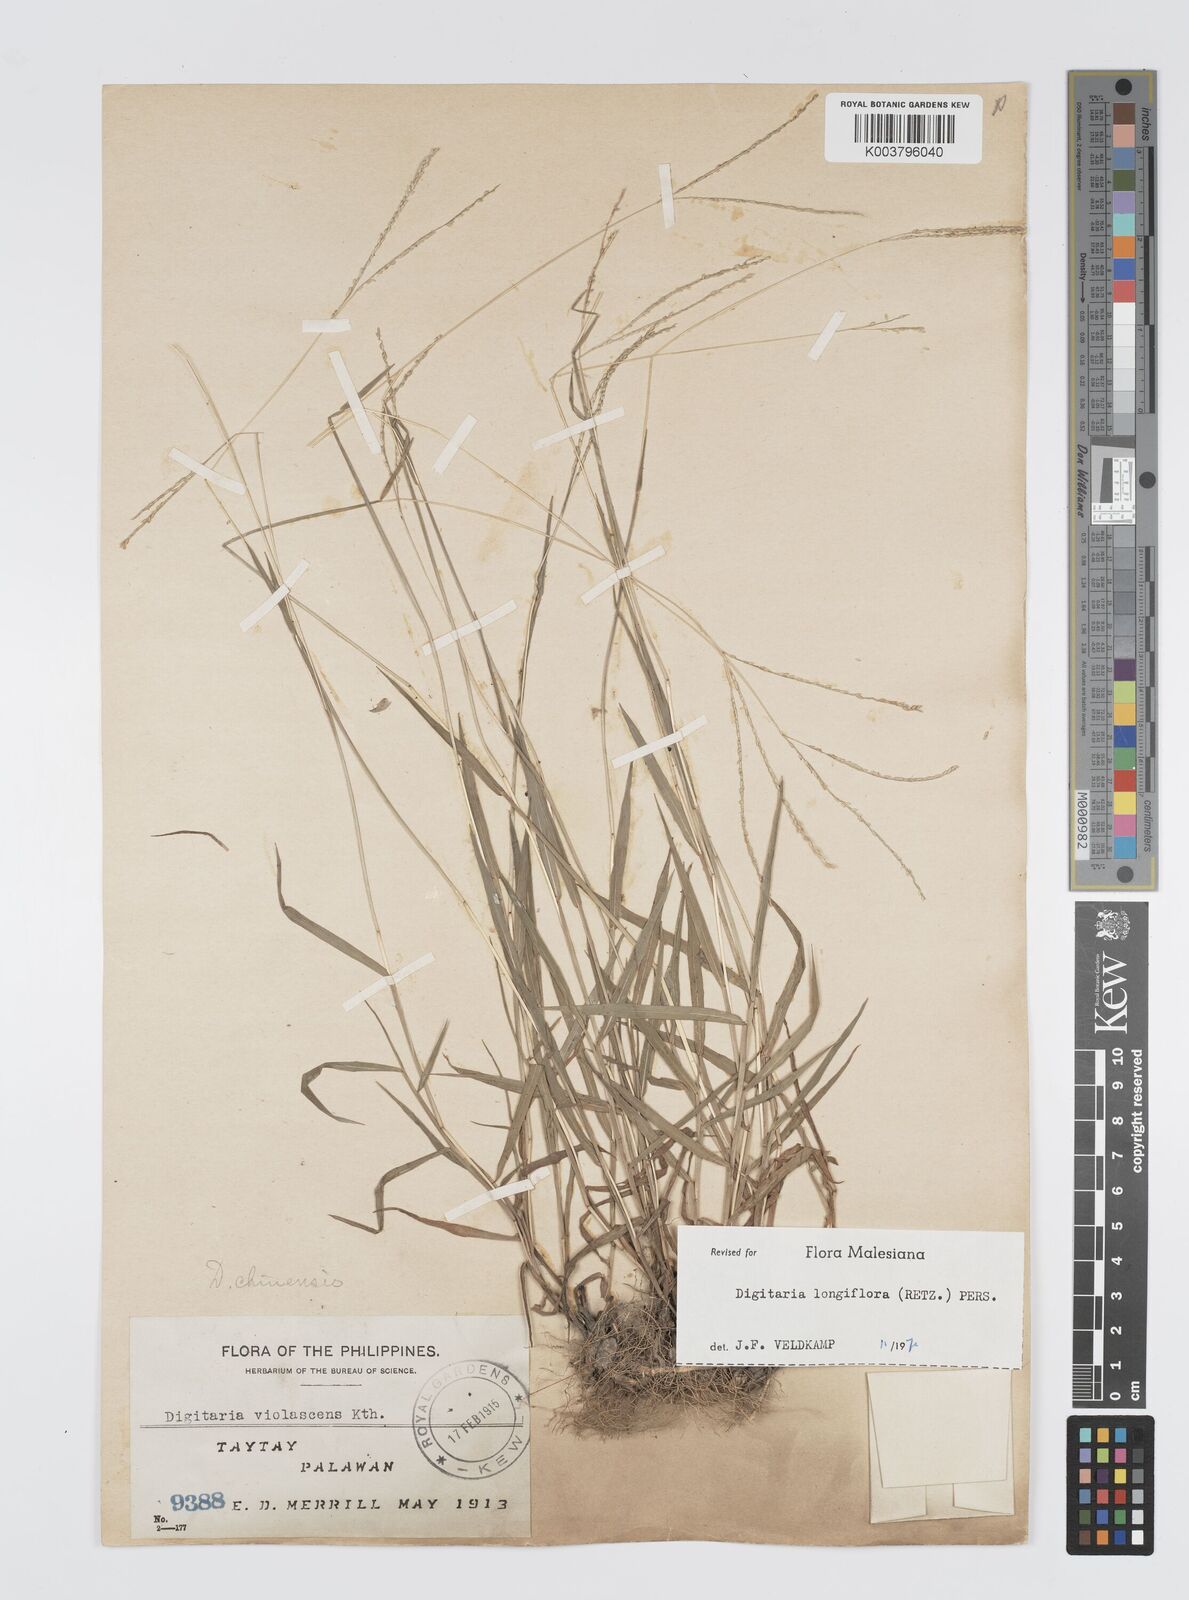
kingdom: Plantae
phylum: Tracheophyta
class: Liliopsida
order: Poales
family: Poaceae
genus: Digitaria
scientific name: Digitaria longiflora
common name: Wire crabgrass
